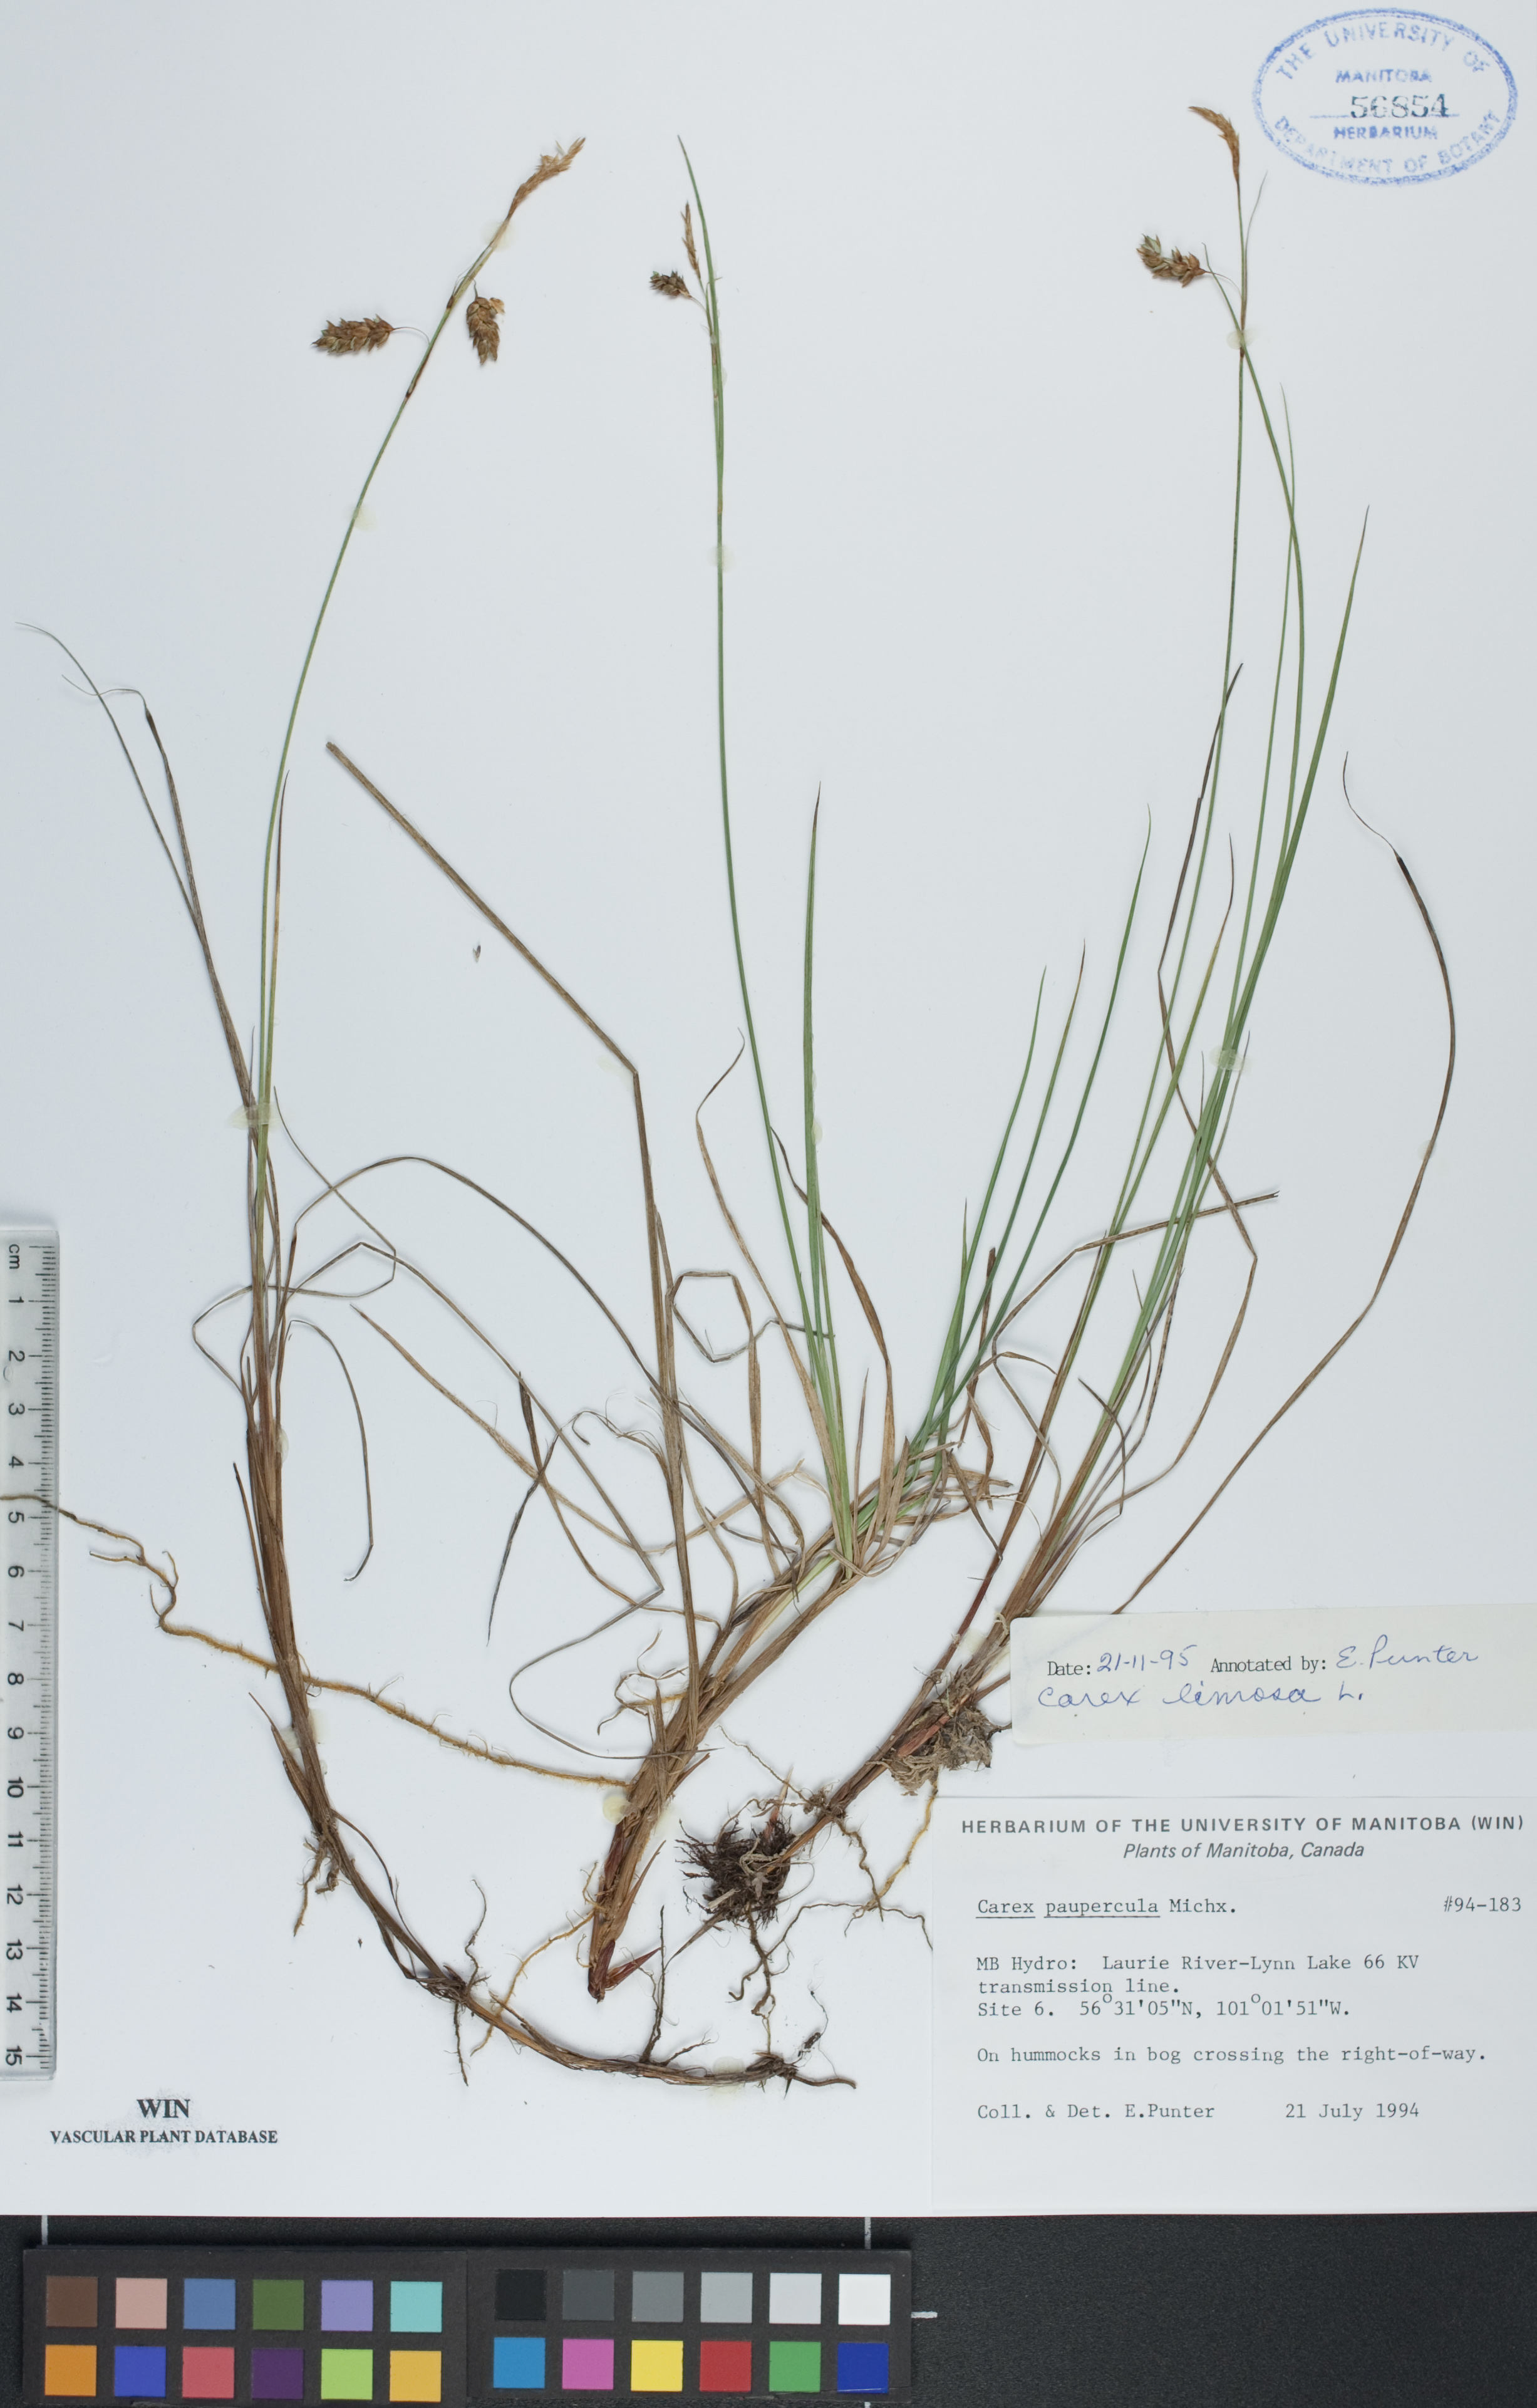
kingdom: Plantae
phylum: Tracheophyta
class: Liliopsida
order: Poales
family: Cyperaceae
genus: Carex
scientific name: Carex limosa
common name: Bog sedge
